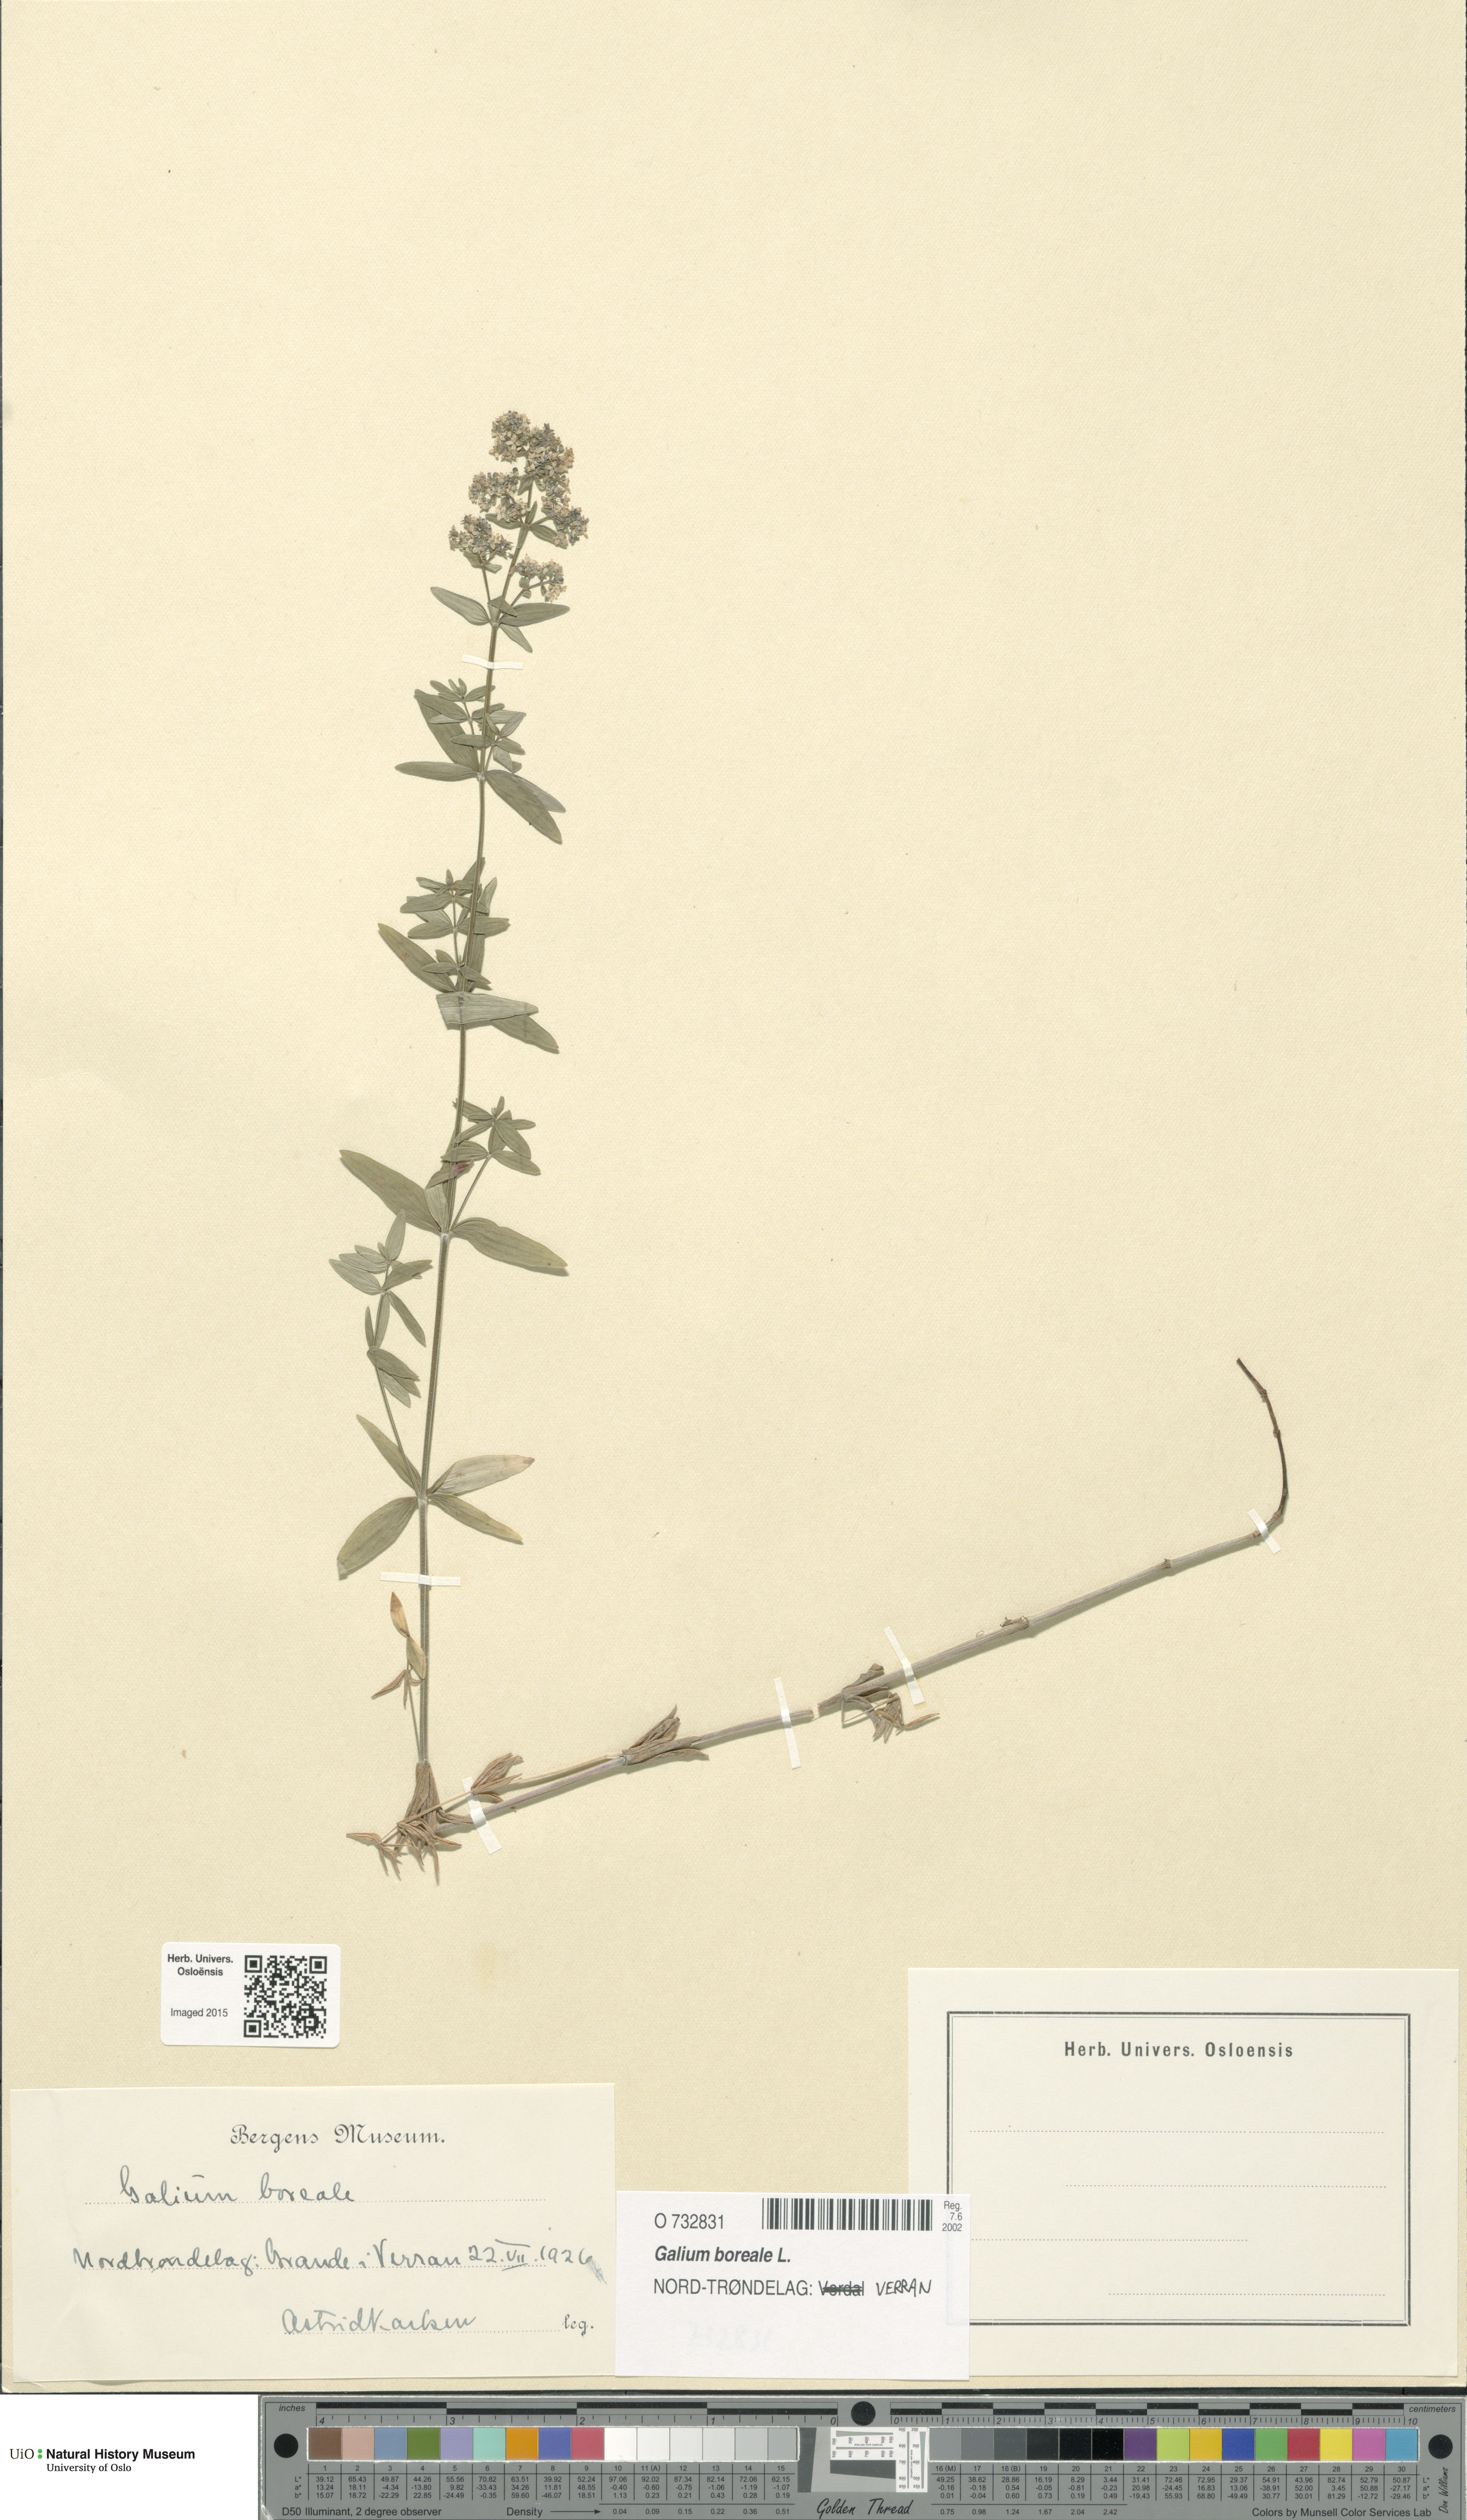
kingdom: Plantae
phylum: Tracheophyta
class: Magnoliopsida
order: Gentianales
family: Rubiaceae
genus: Galium
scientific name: Galium boreale
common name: Northern bedstraw
